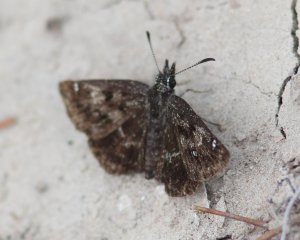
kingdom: Animalia
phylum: Arthropoda
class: Insecta
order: Lepidoptera
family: Hesperiidae
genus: Hesperopsis
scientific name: Hesperopsis alpheus
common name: Saltbush Sootywing
